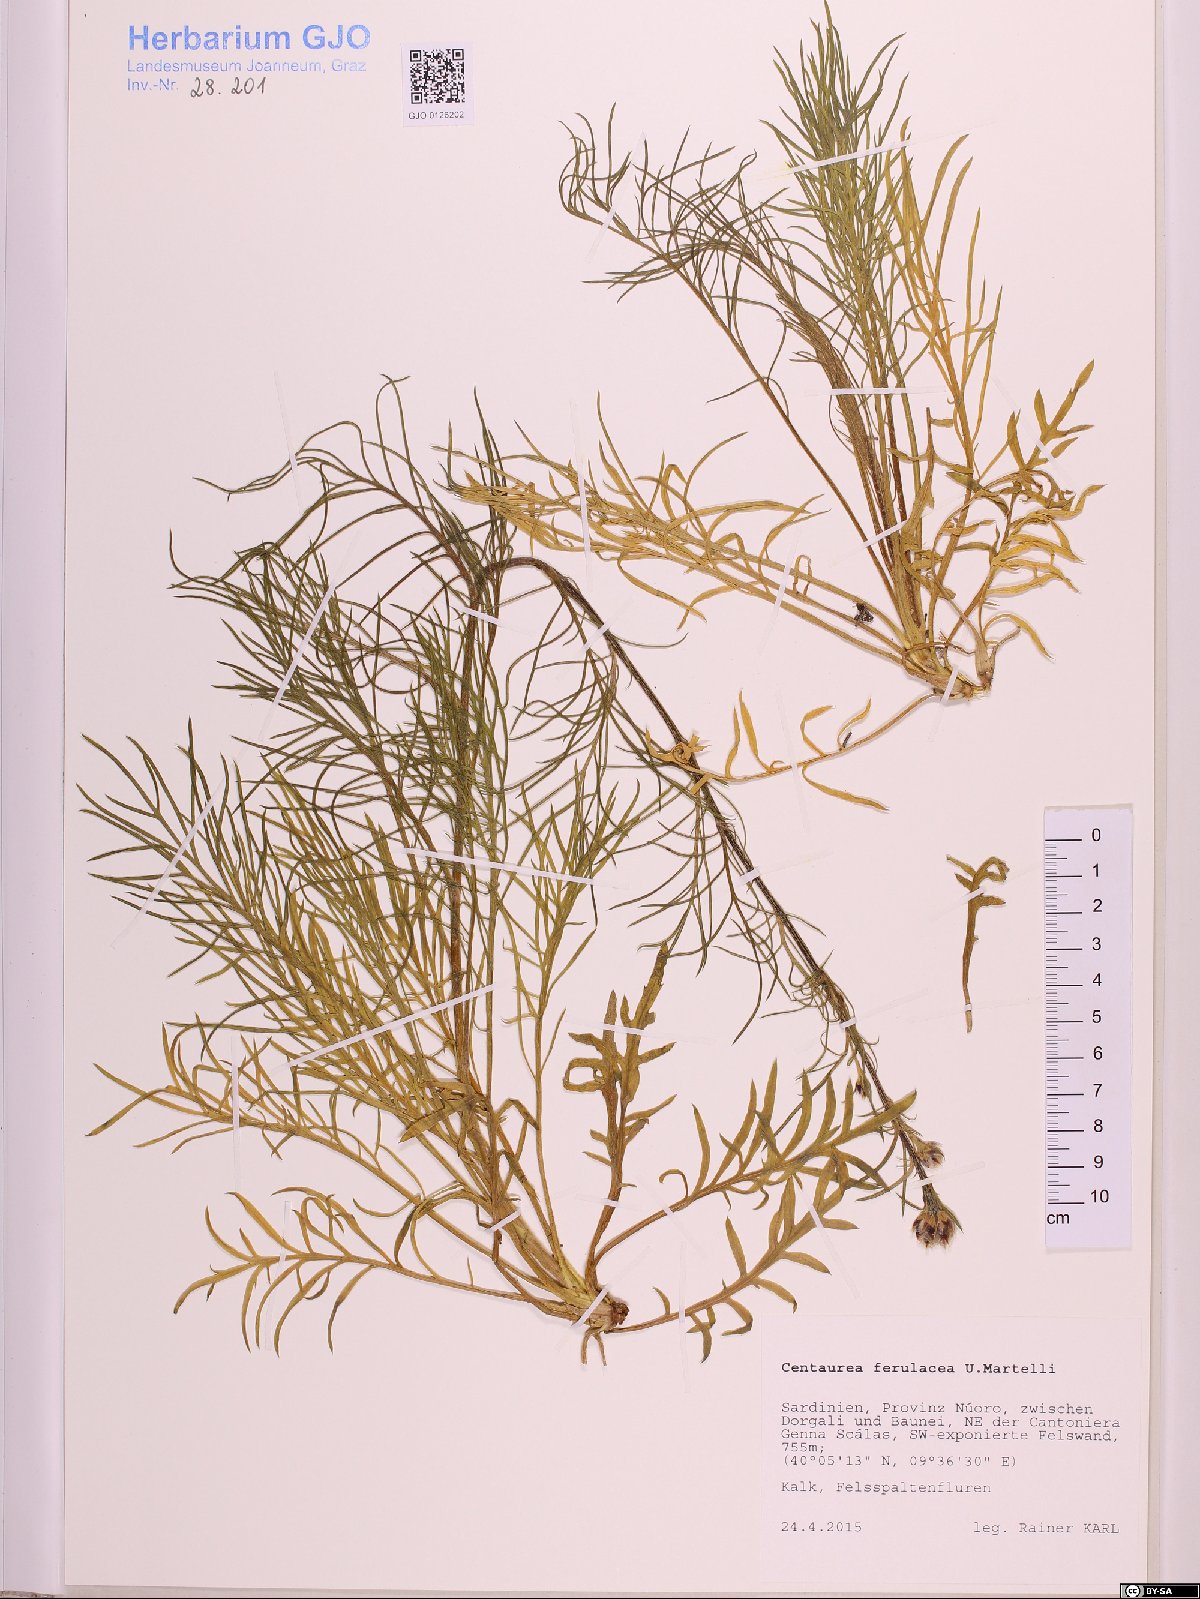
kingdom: Plantae
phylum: Tracheophyta
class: Magnoliopsida
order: Asterales
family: Asteraceae
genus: Centaurea
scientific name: Centaurea filiformis
